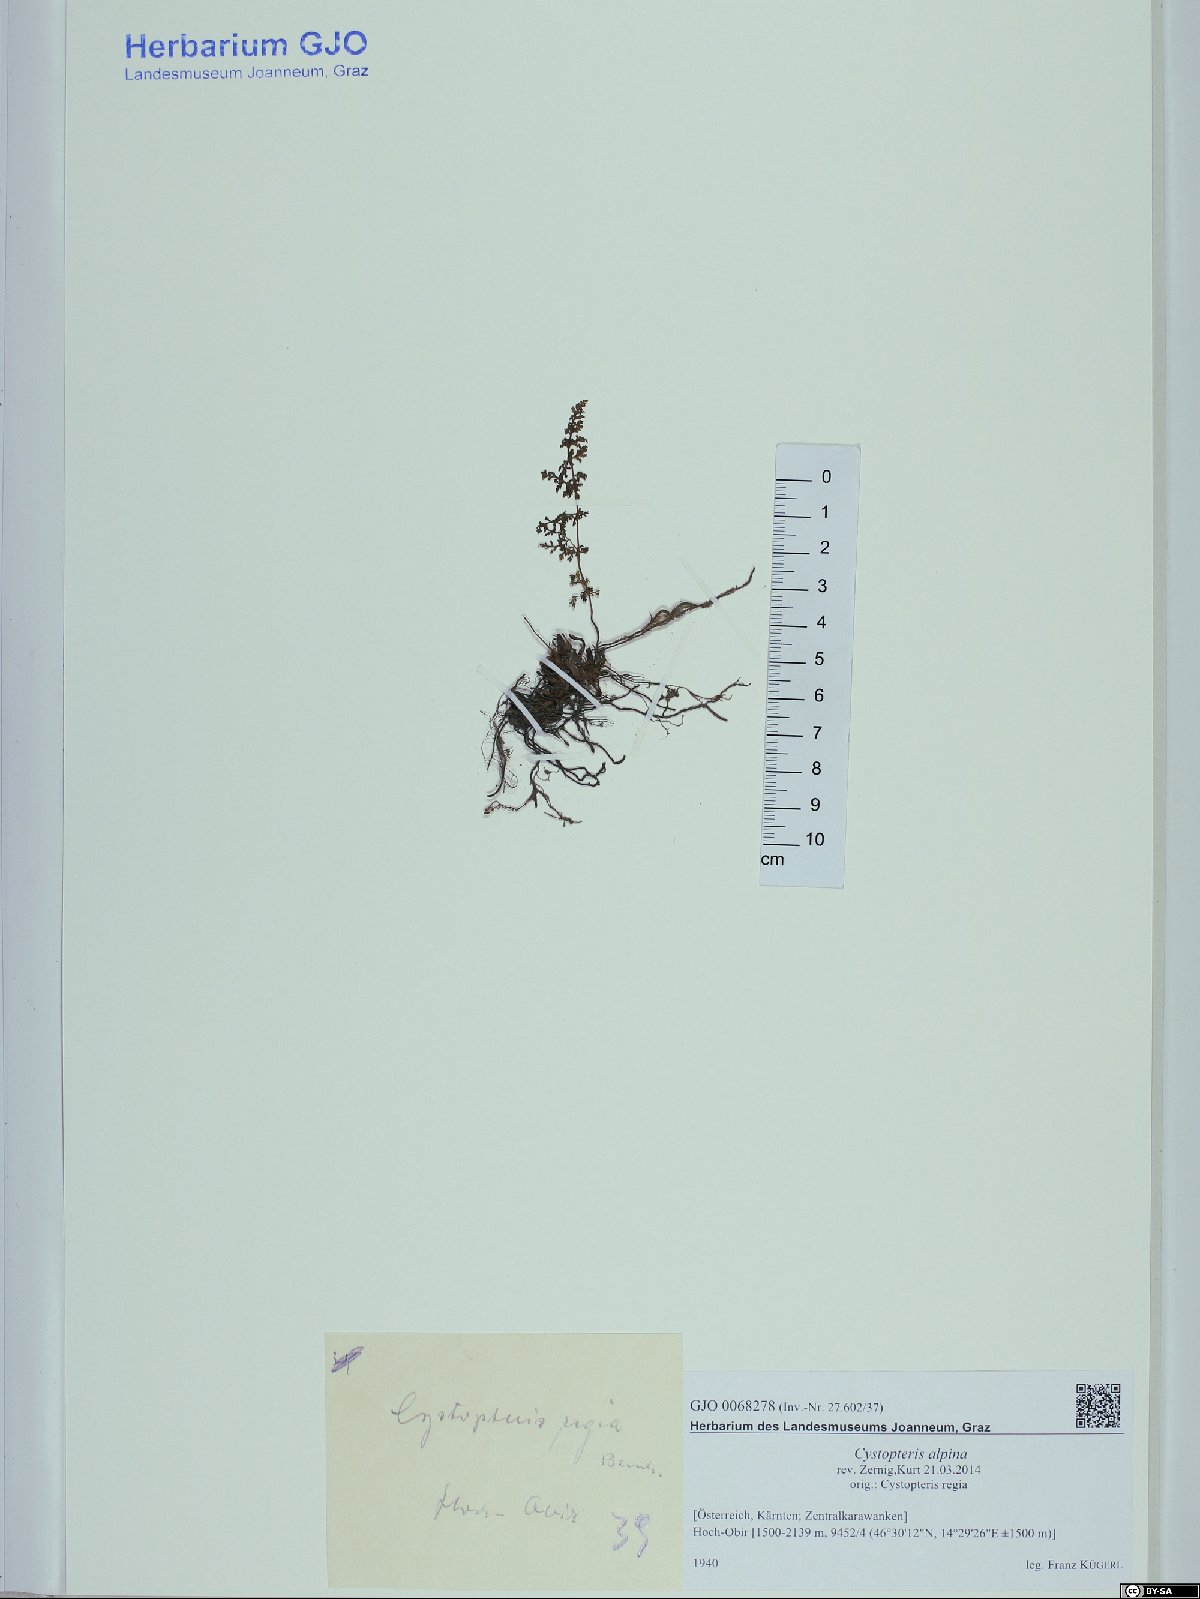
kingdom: Plantae
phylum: Tracheophyta
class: Polypodiopsida
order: Polypodiales
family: Cystopteridaceae
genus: Cystopteris
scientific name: Cystopteris alpina
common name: Alpine bladder-fern
